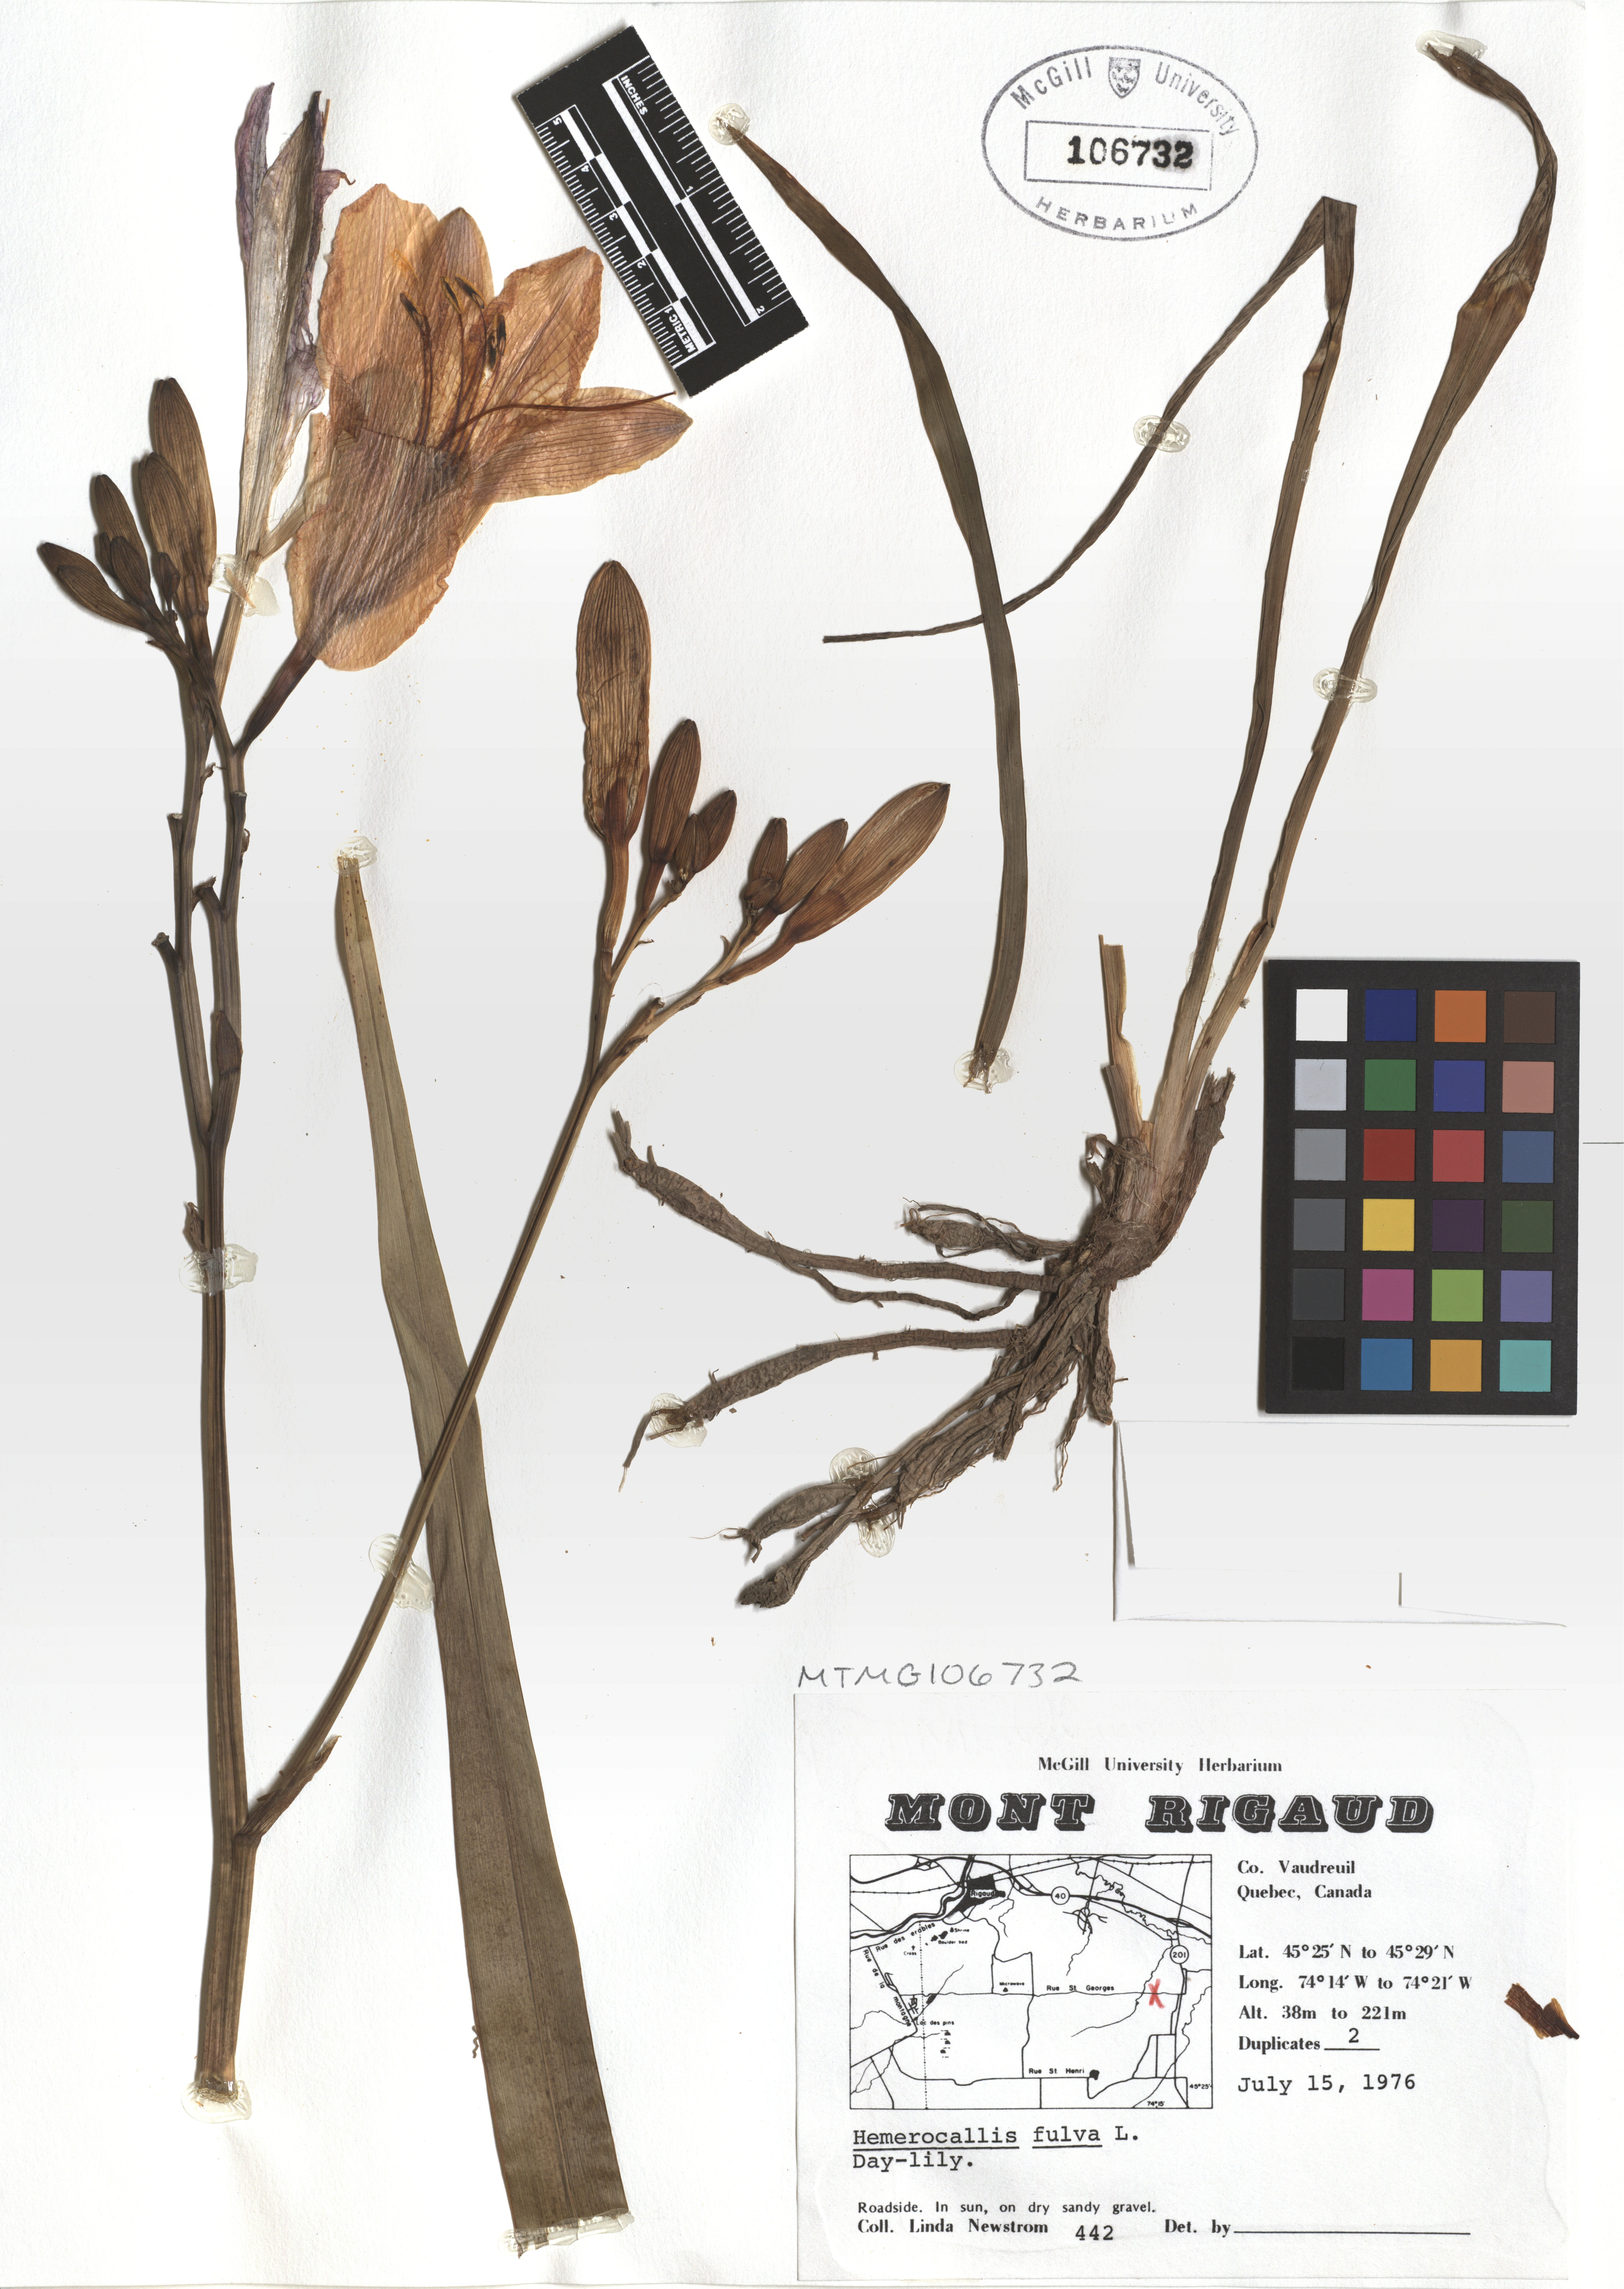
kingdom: Plantae
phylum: Tracheophyta
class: Liliopsida
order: Liliales
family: Liliaceae
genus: Erythronium
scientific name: Erythronium americanum
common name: Yellow adder's-tongue
